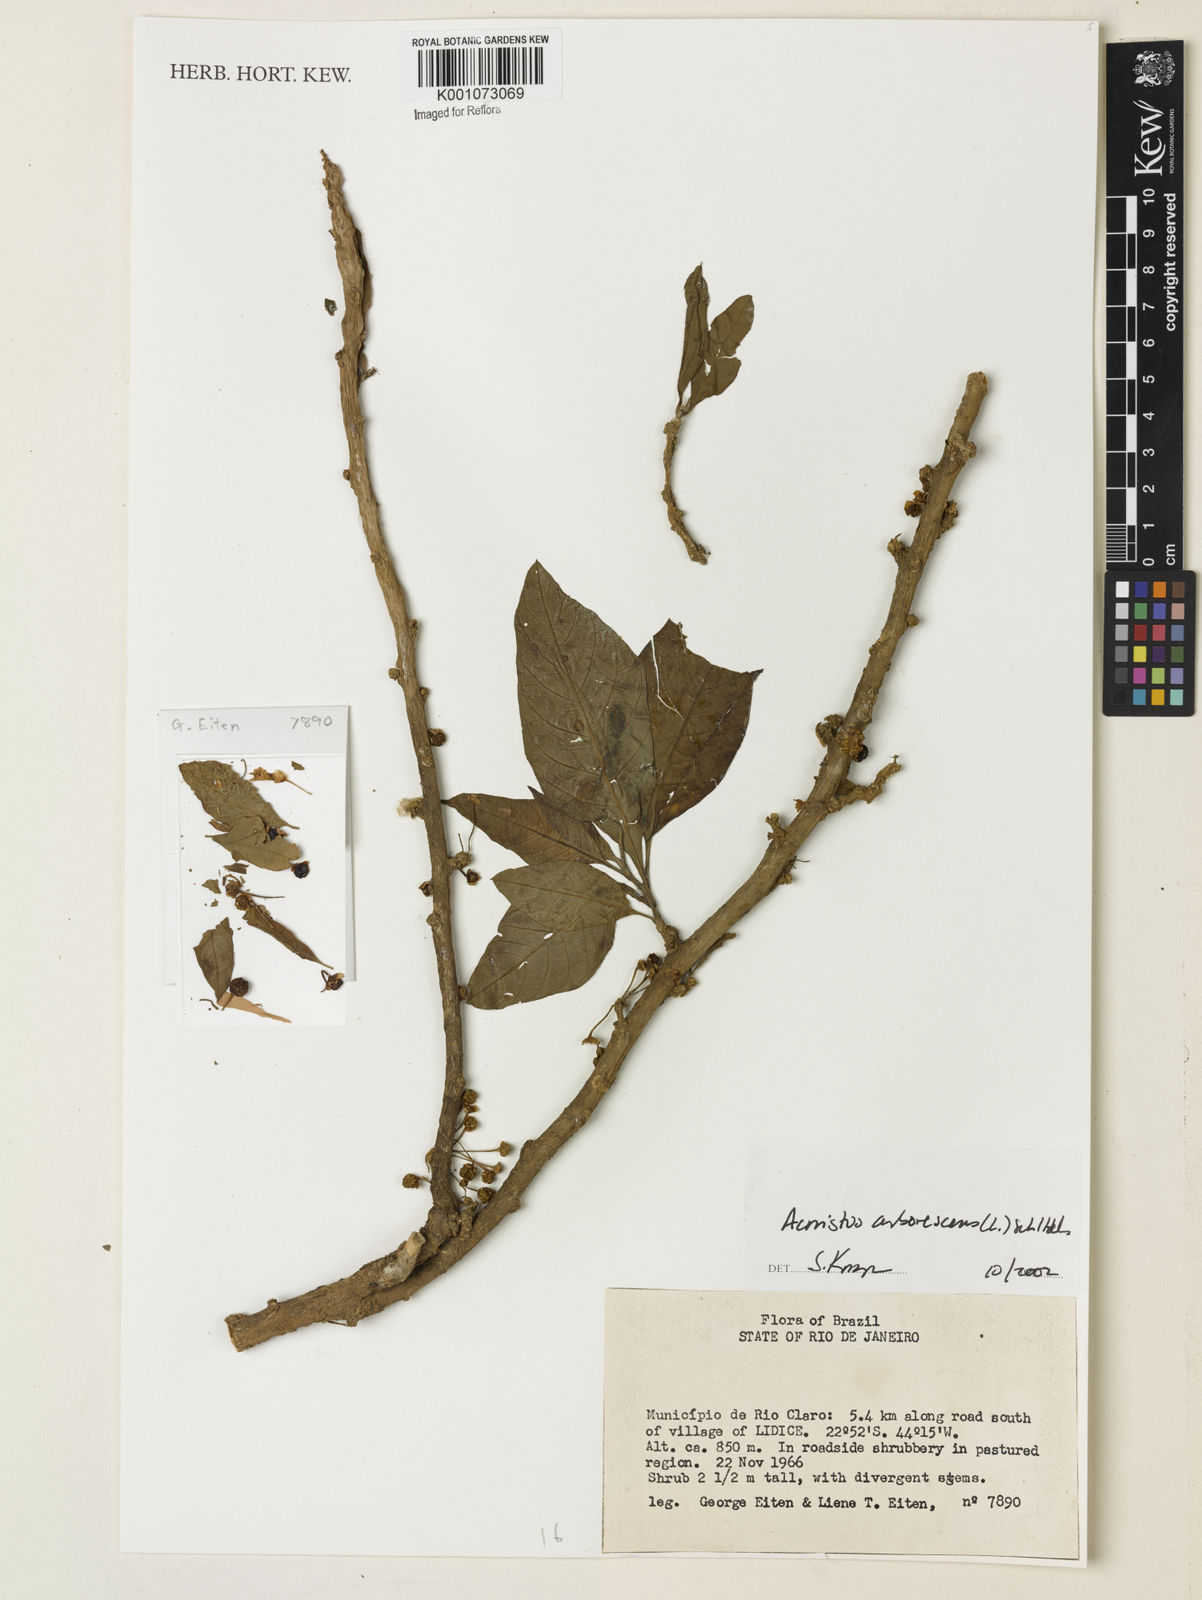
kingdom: Plantae
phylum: Tracheophyta
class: Magnoliopsida
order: Solanales
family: Solanaceae
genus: Iochroma
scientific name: Iochroma arborescens
